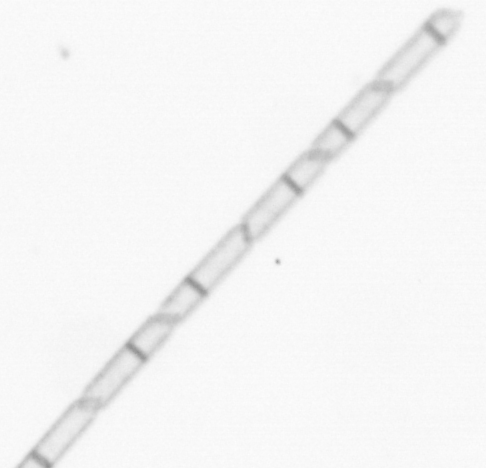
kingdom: Chromista
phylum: Ochrophyta
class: Bacillariophyceae
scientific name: Bacillariophyceae
